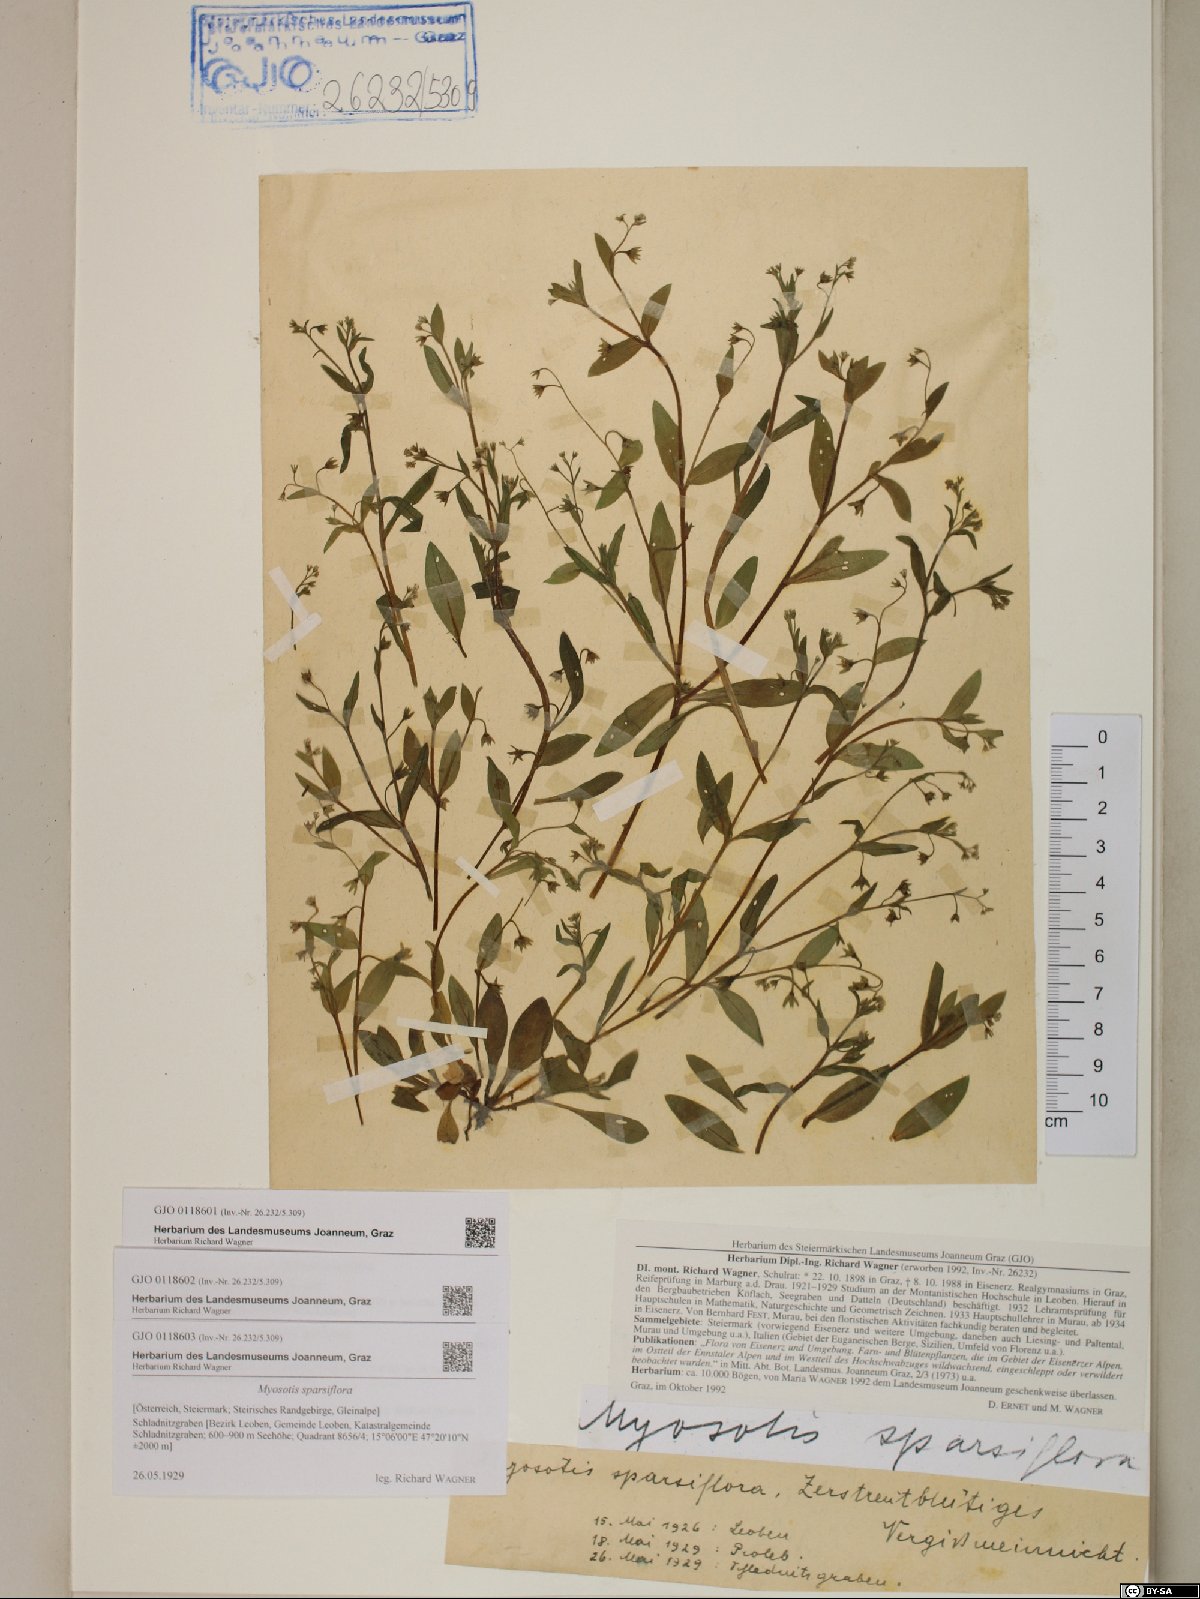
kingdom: Plantae
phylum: Tracheophyta
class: Magnoliopsida
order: Boraginales
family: Boraginaceae
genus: Myosotis
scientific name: Myosotis sparsiflora
